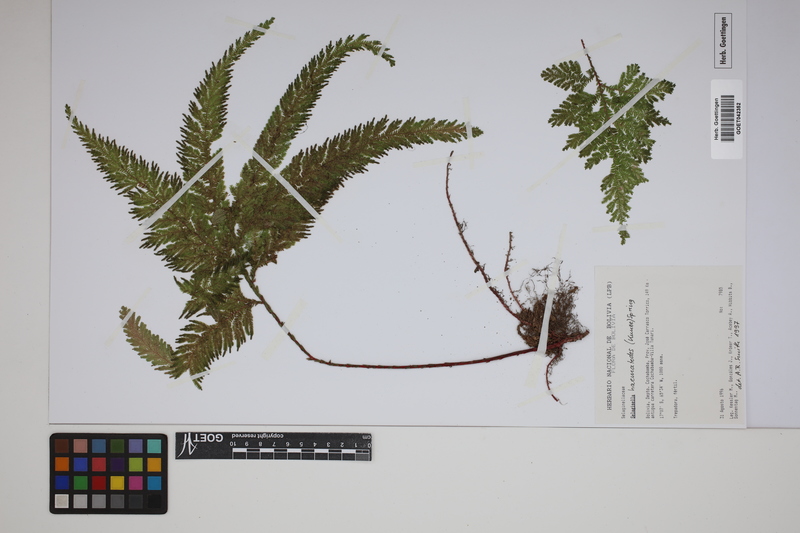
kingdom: Plantae
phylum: Tracheophyta
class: Lycopodiopsida
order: Selaginellales
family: Selaginellaceae
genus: Selaginella
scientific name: Selaginella haematodes
